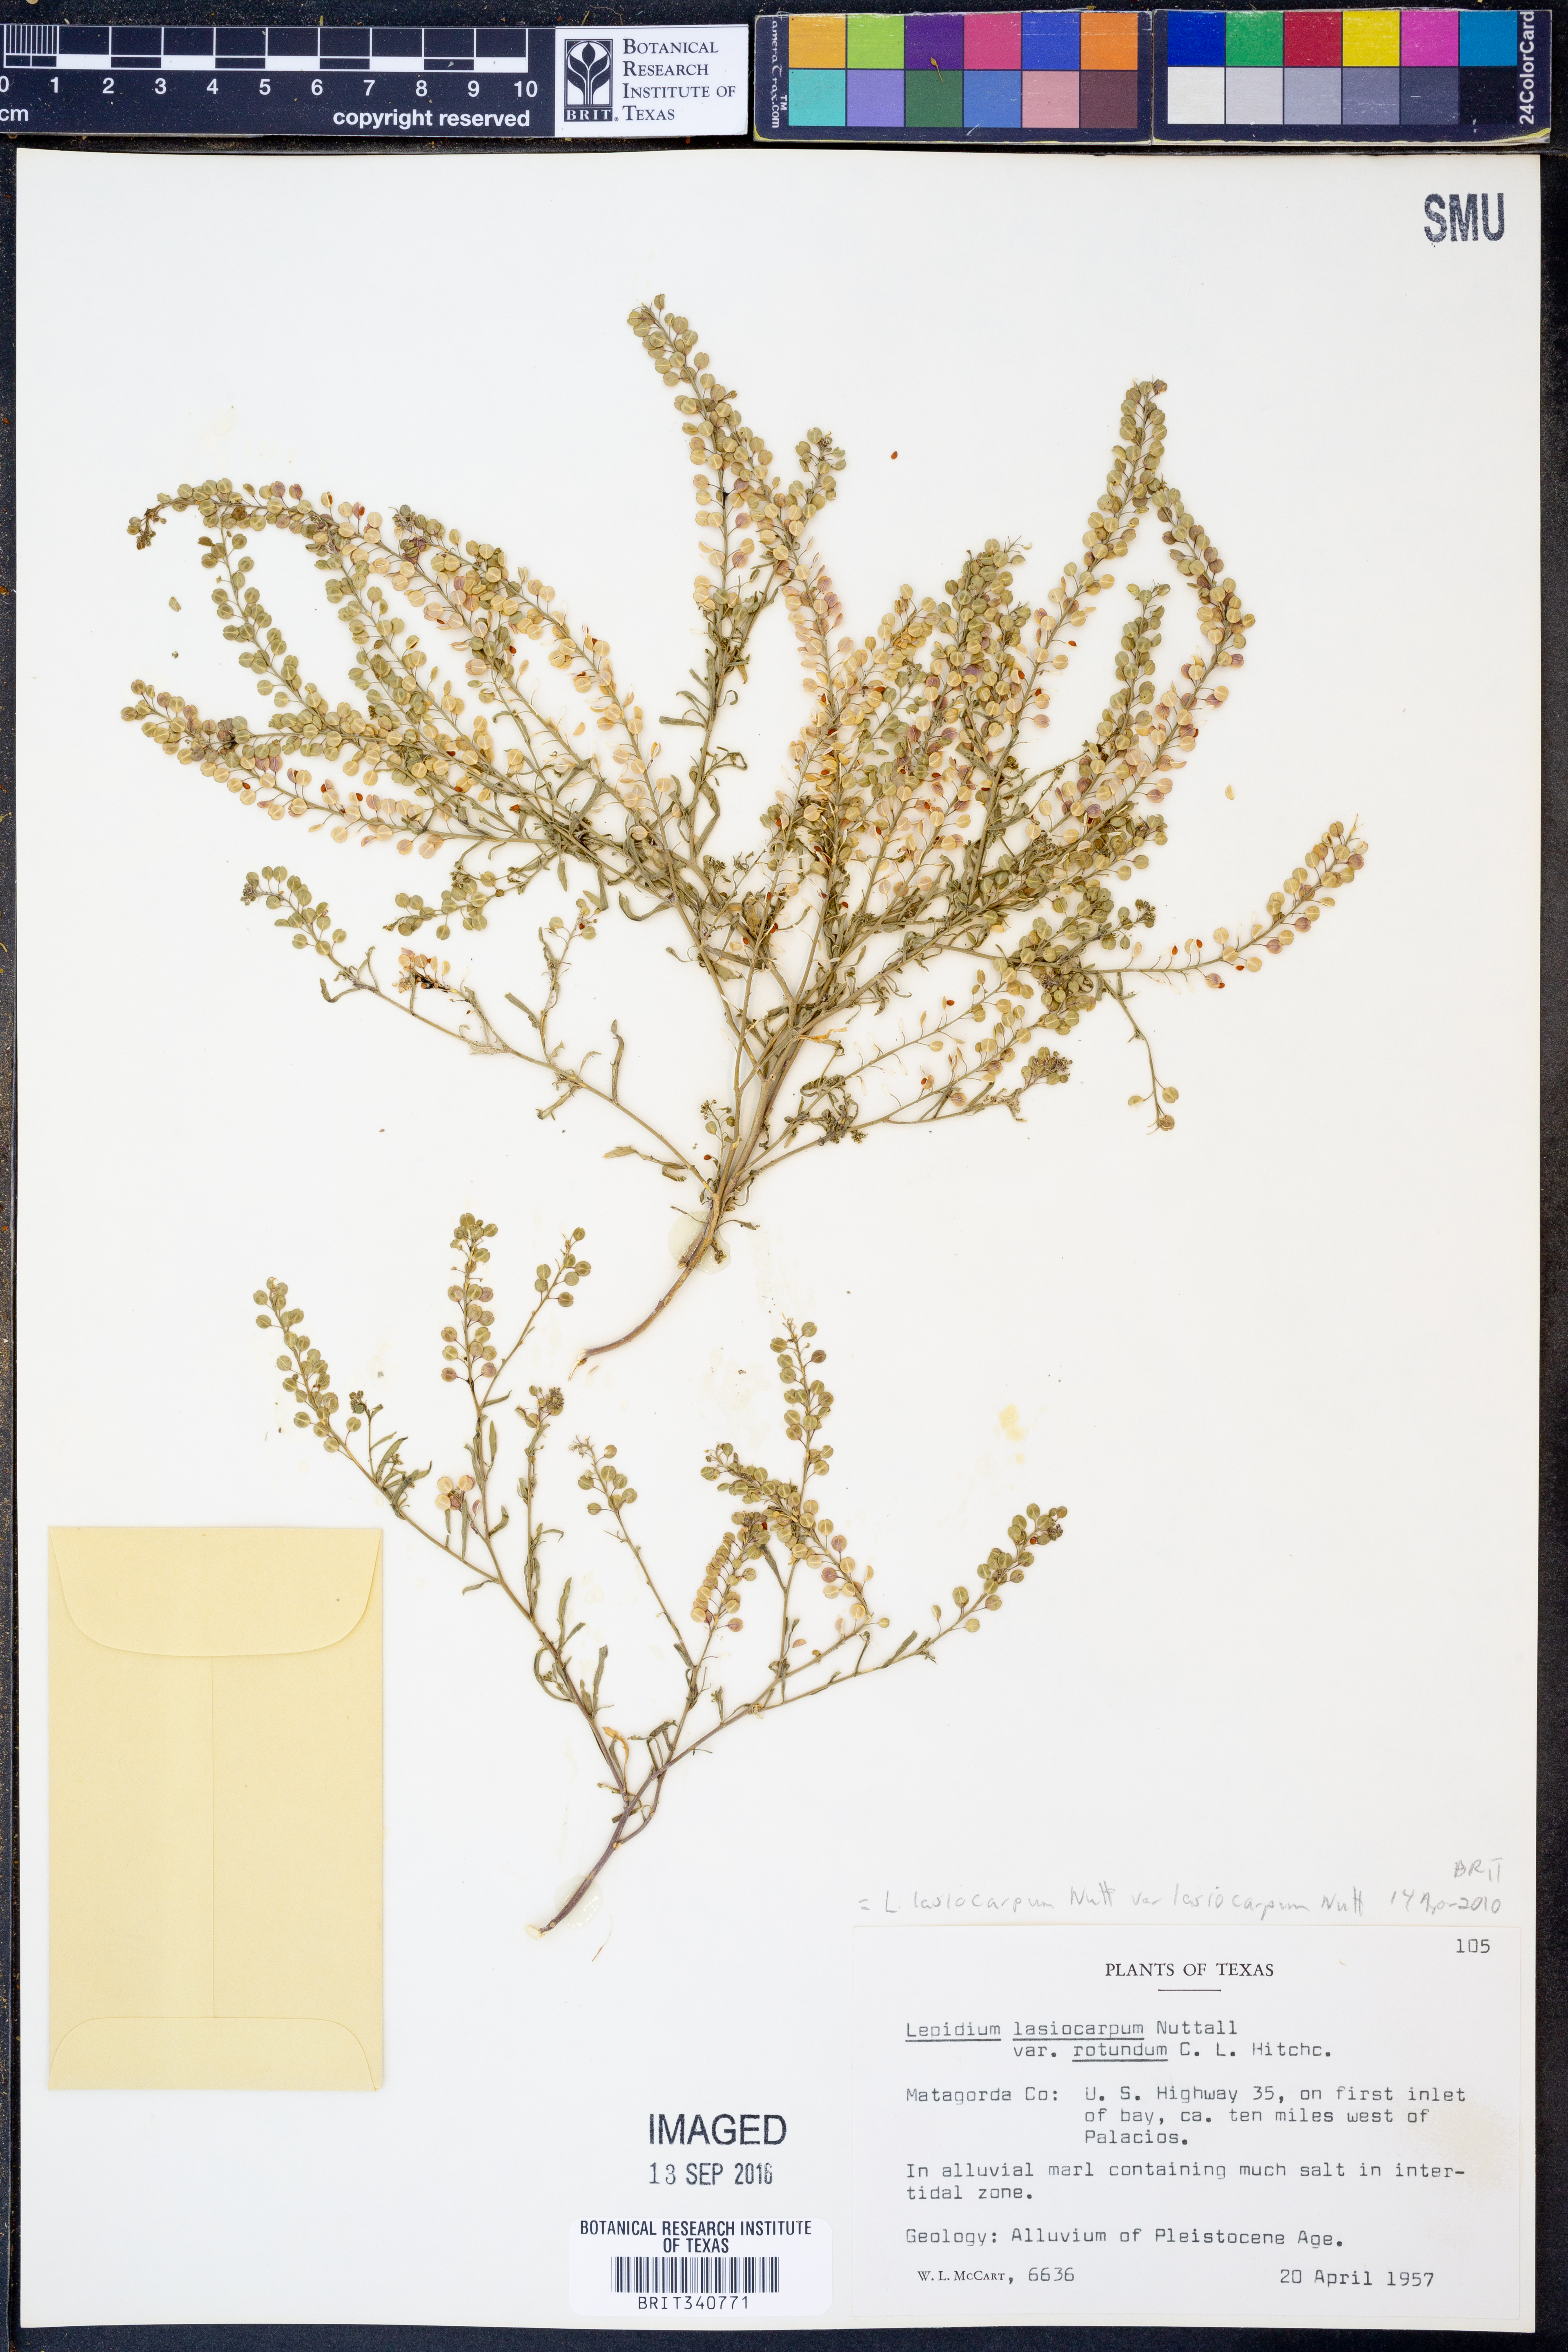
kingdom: Plantae
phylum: Tracheophyta
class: Magnoliopsida
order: Brassicales
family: Brassicaceae
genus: Lepidium
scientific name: Lepidium lasiocarpum
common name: Hairy-pod pepperwort
